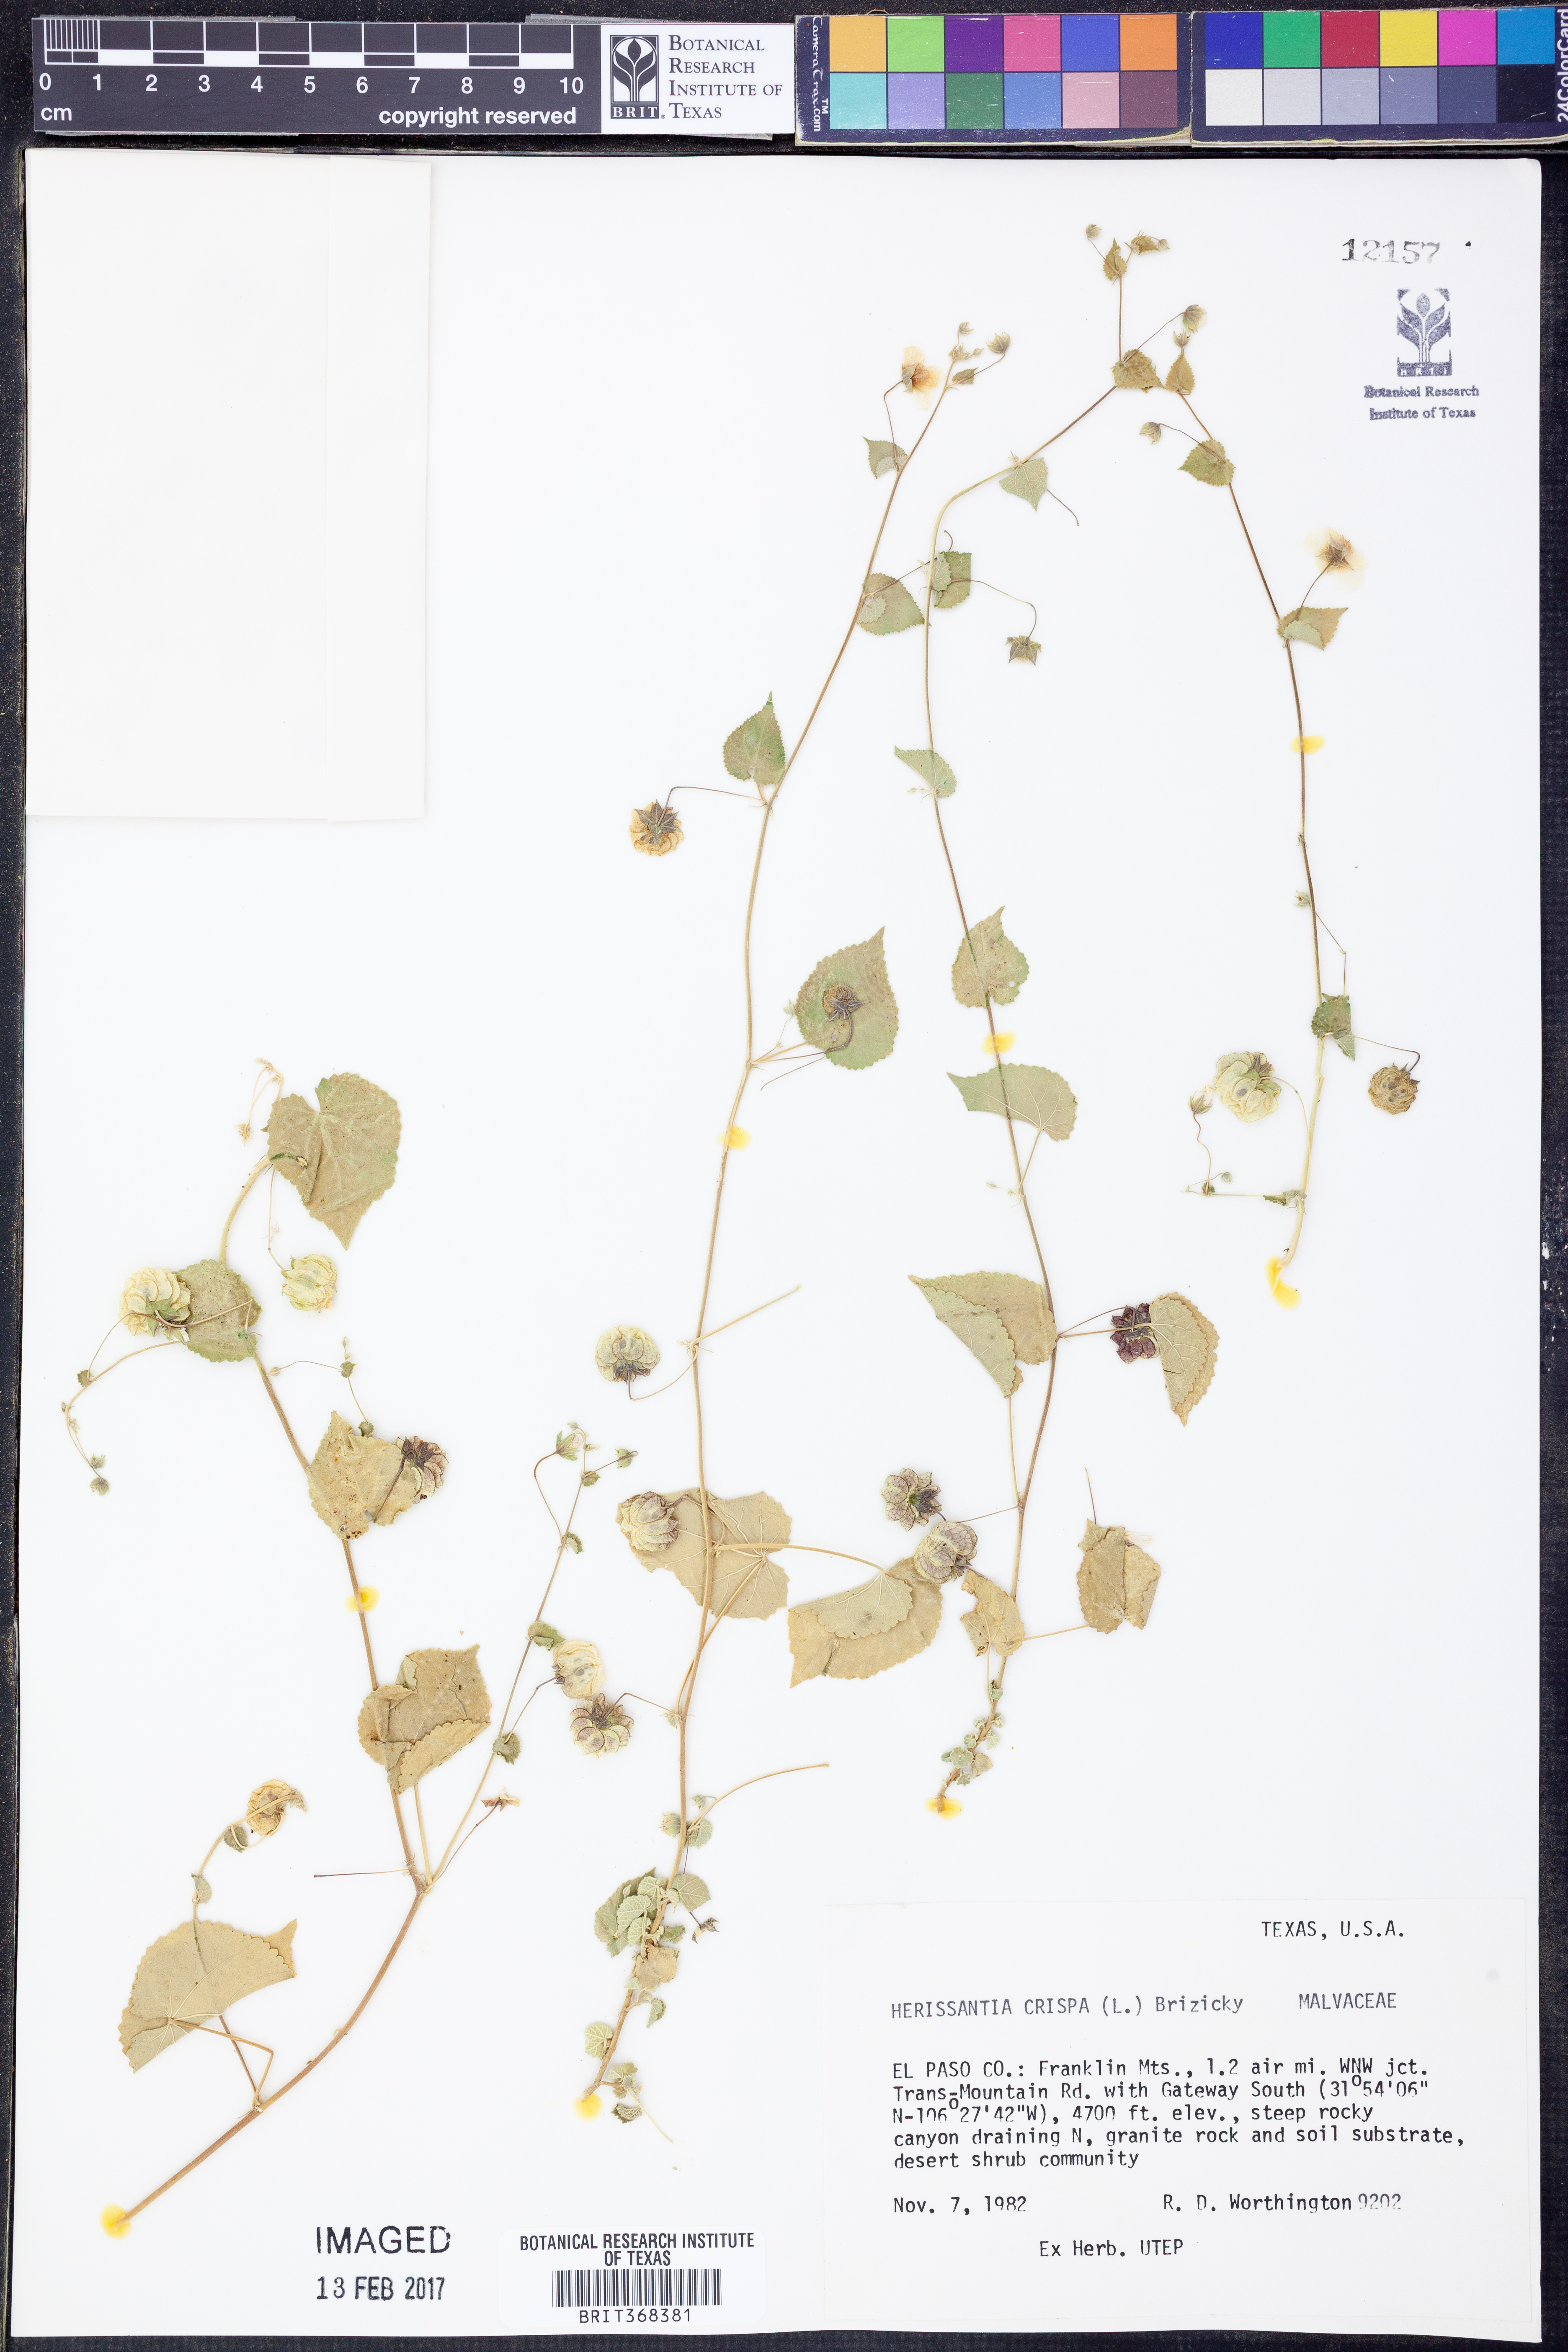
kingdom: Plantae
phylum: Tracheophyta
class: Magnoliopsida
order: Malvales
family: Malvaceae
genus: Herissantia
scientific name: Herissantia crispa
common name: Bladdermallow
